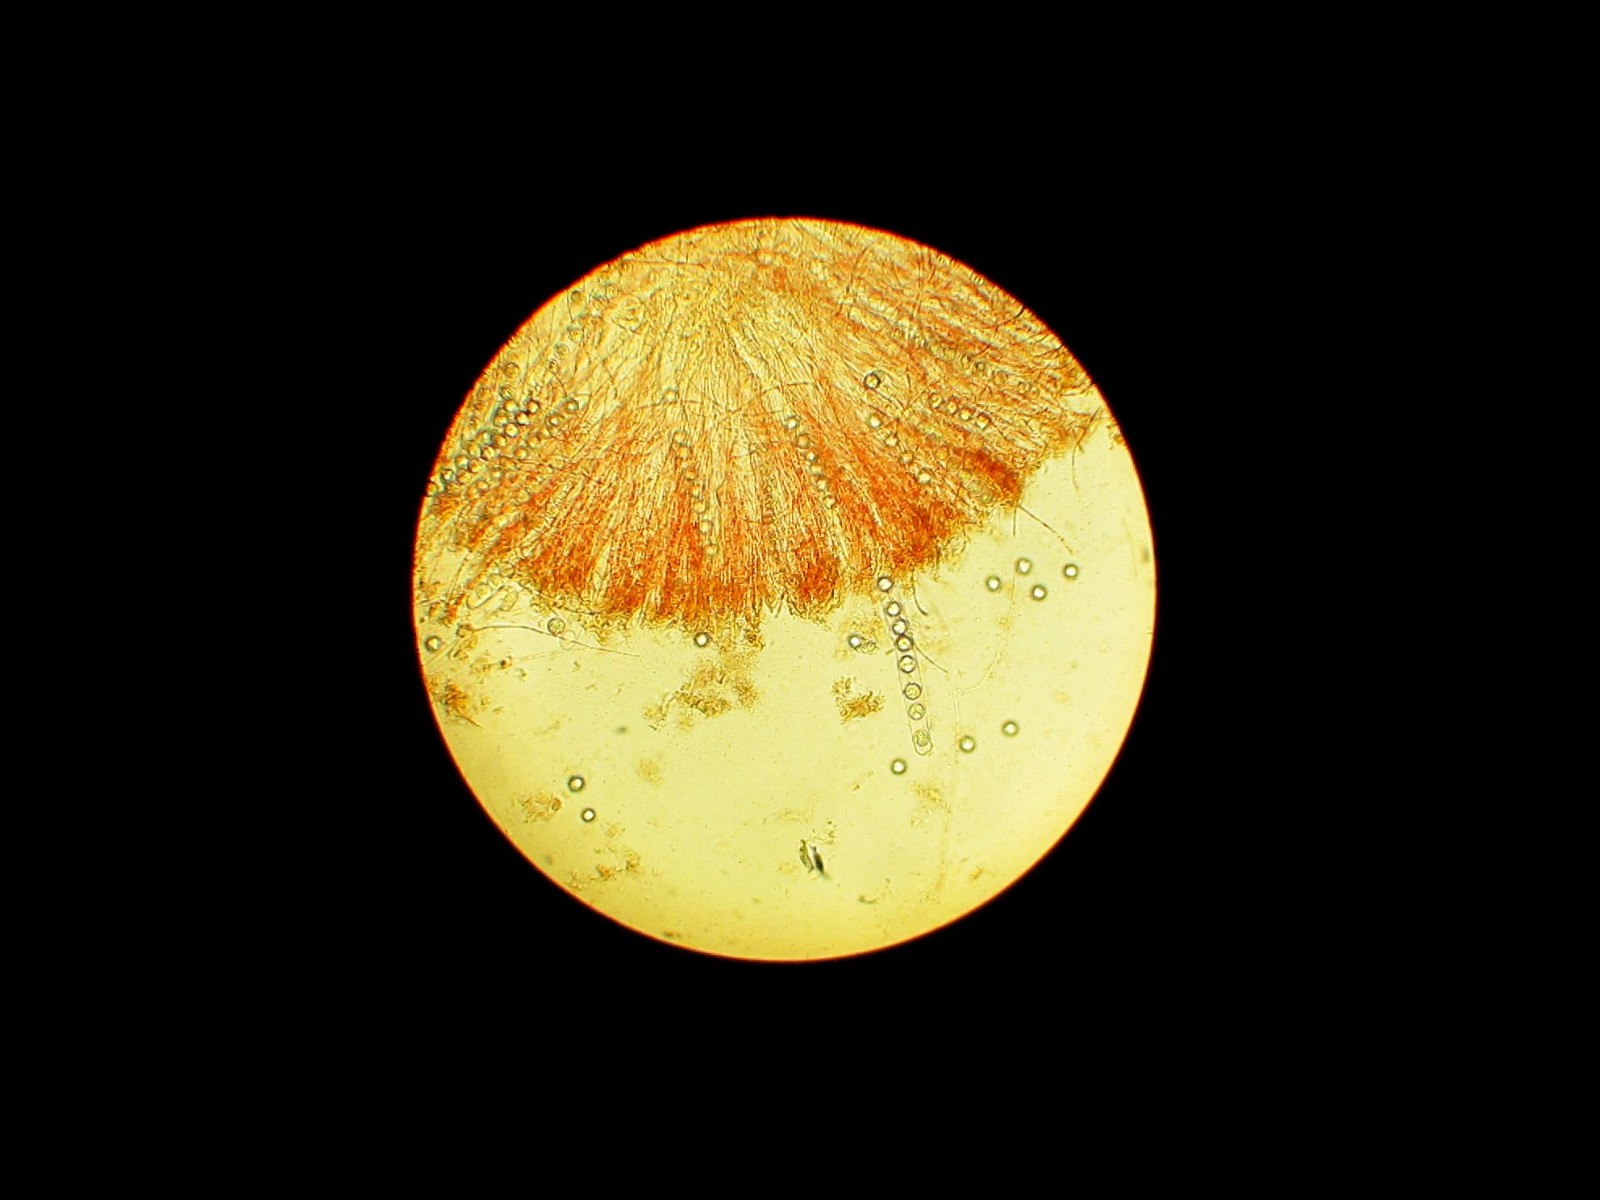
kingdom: Fungi
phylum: Ascomycota
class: Pezizomycetes
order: Pezizales
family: Pulvinulaceae
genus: Pulvinula
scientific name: Pulvinula miltina
